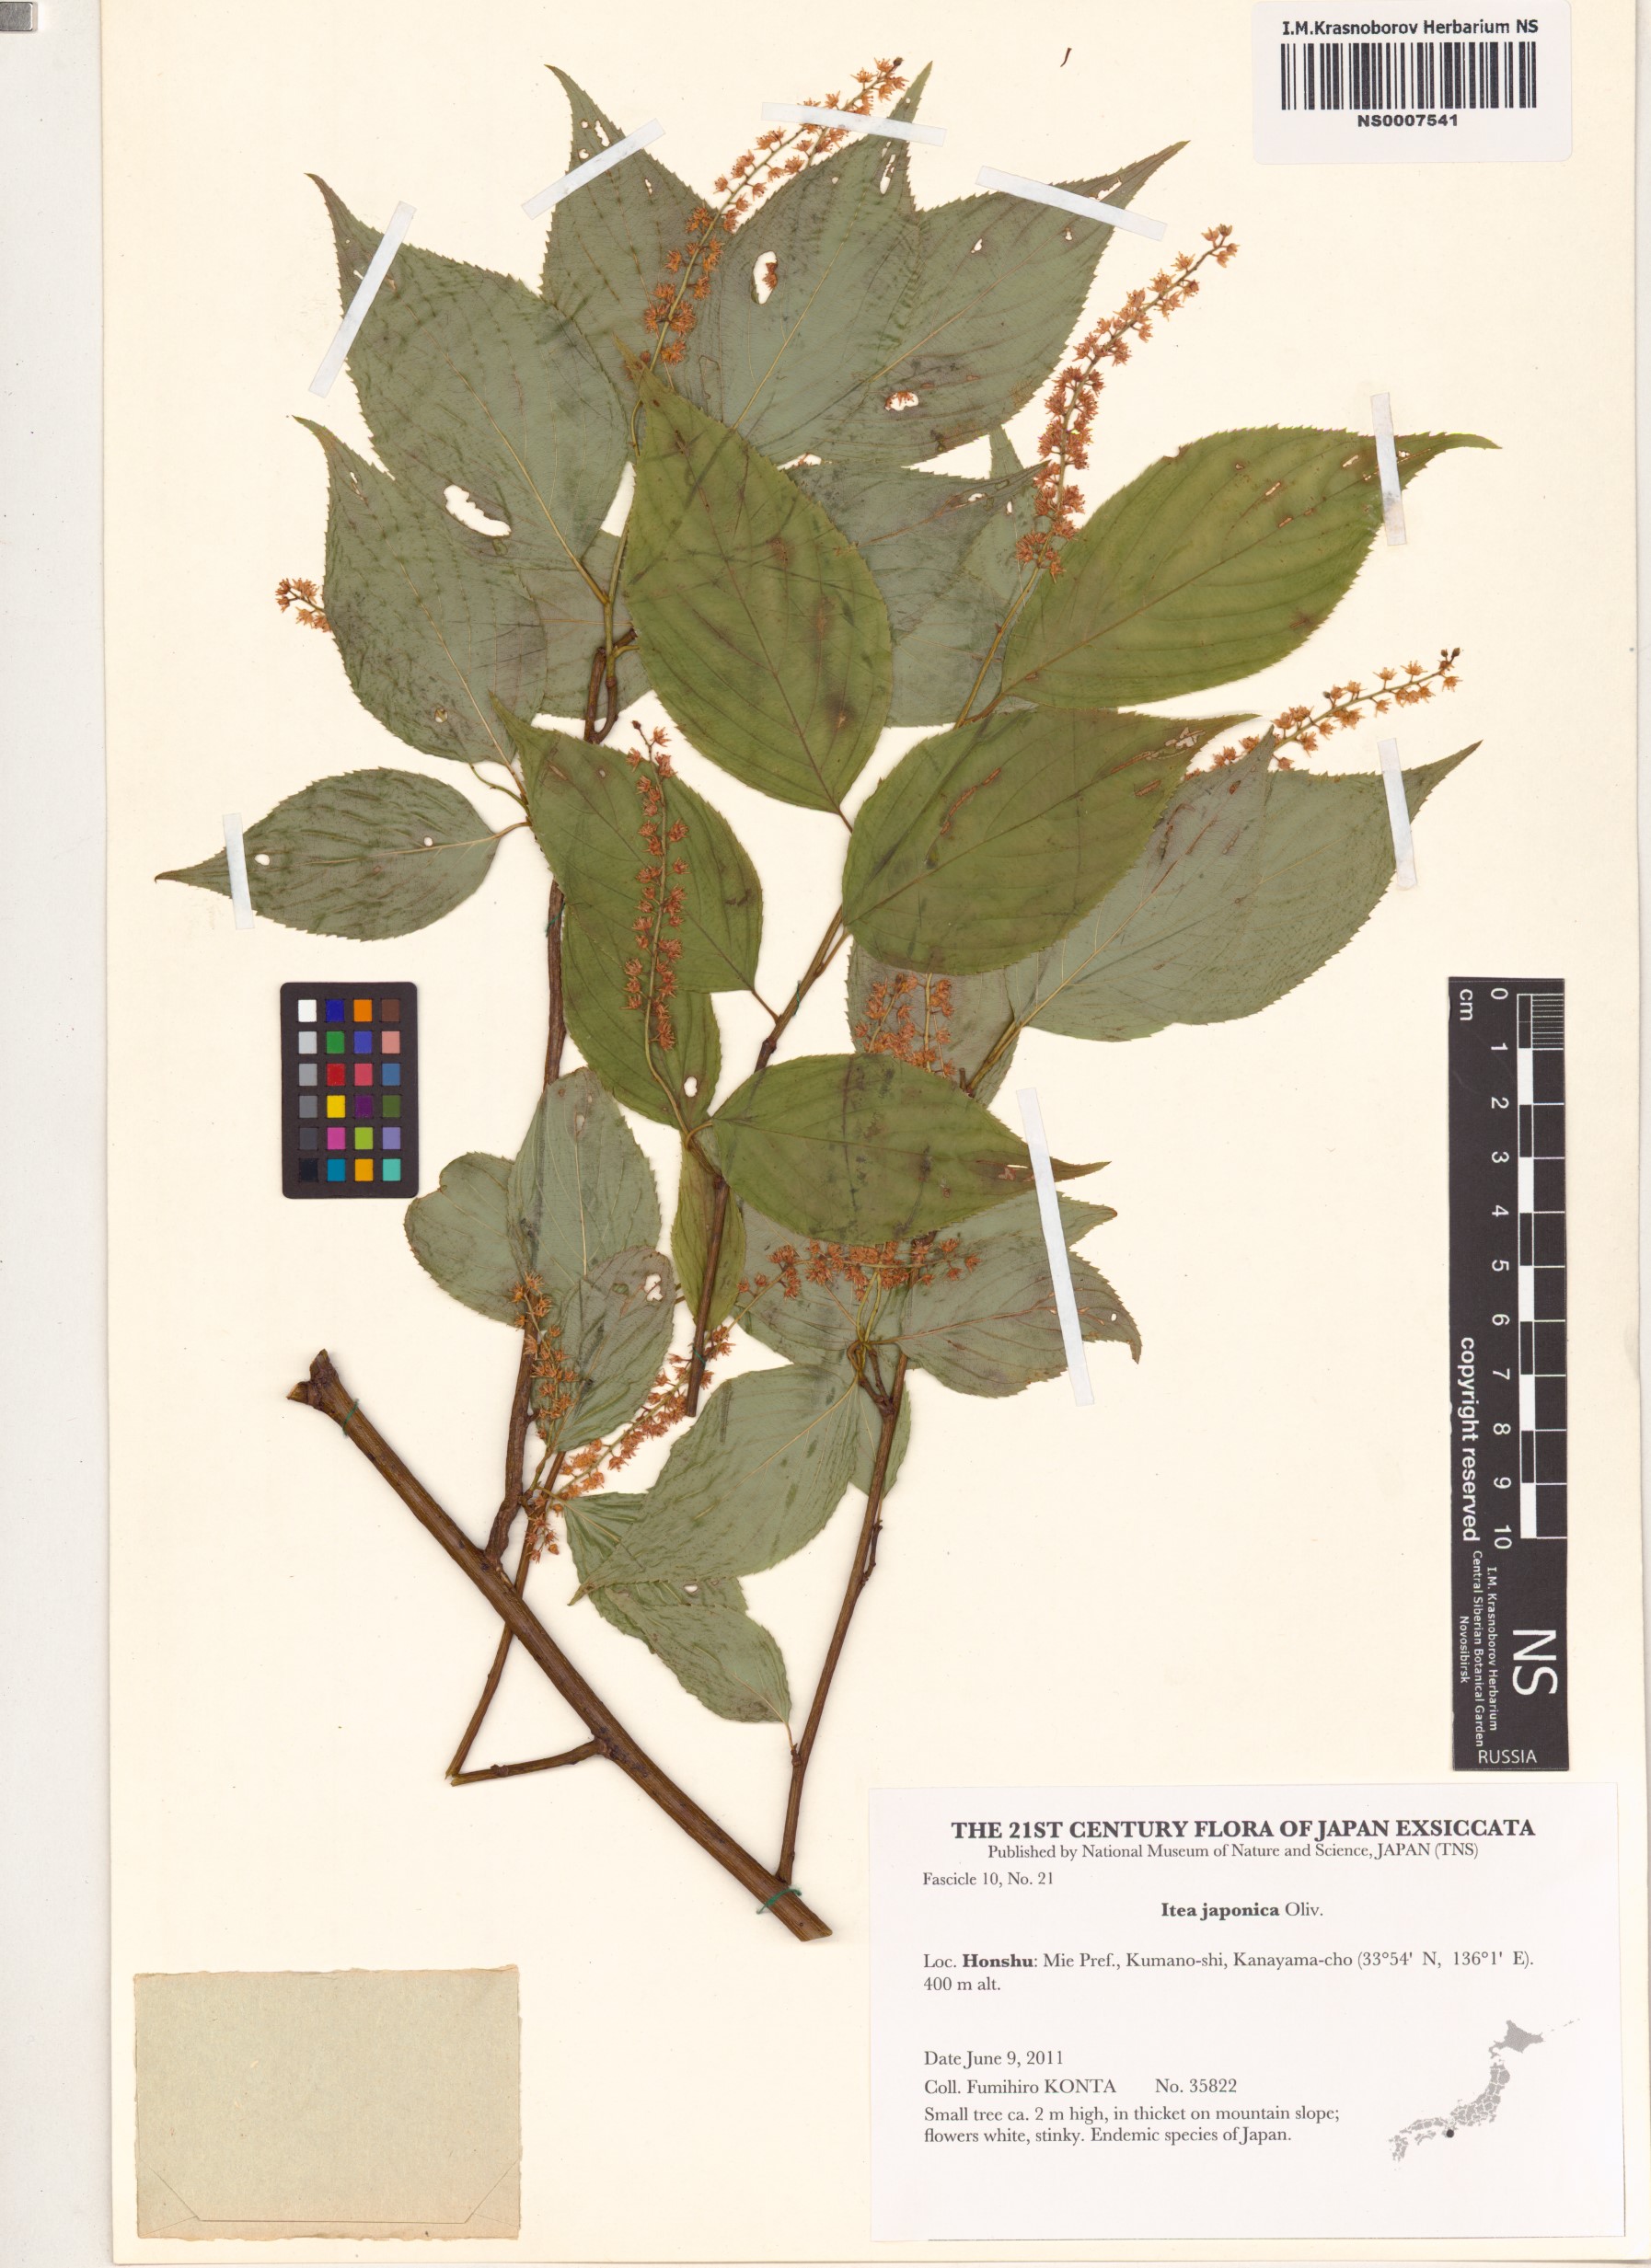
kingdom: Plantae
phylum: Tracheophyta
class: Magnoliopsida
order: Saxifragales
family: Iteaceae
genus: Itea
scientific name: Itea japonica
